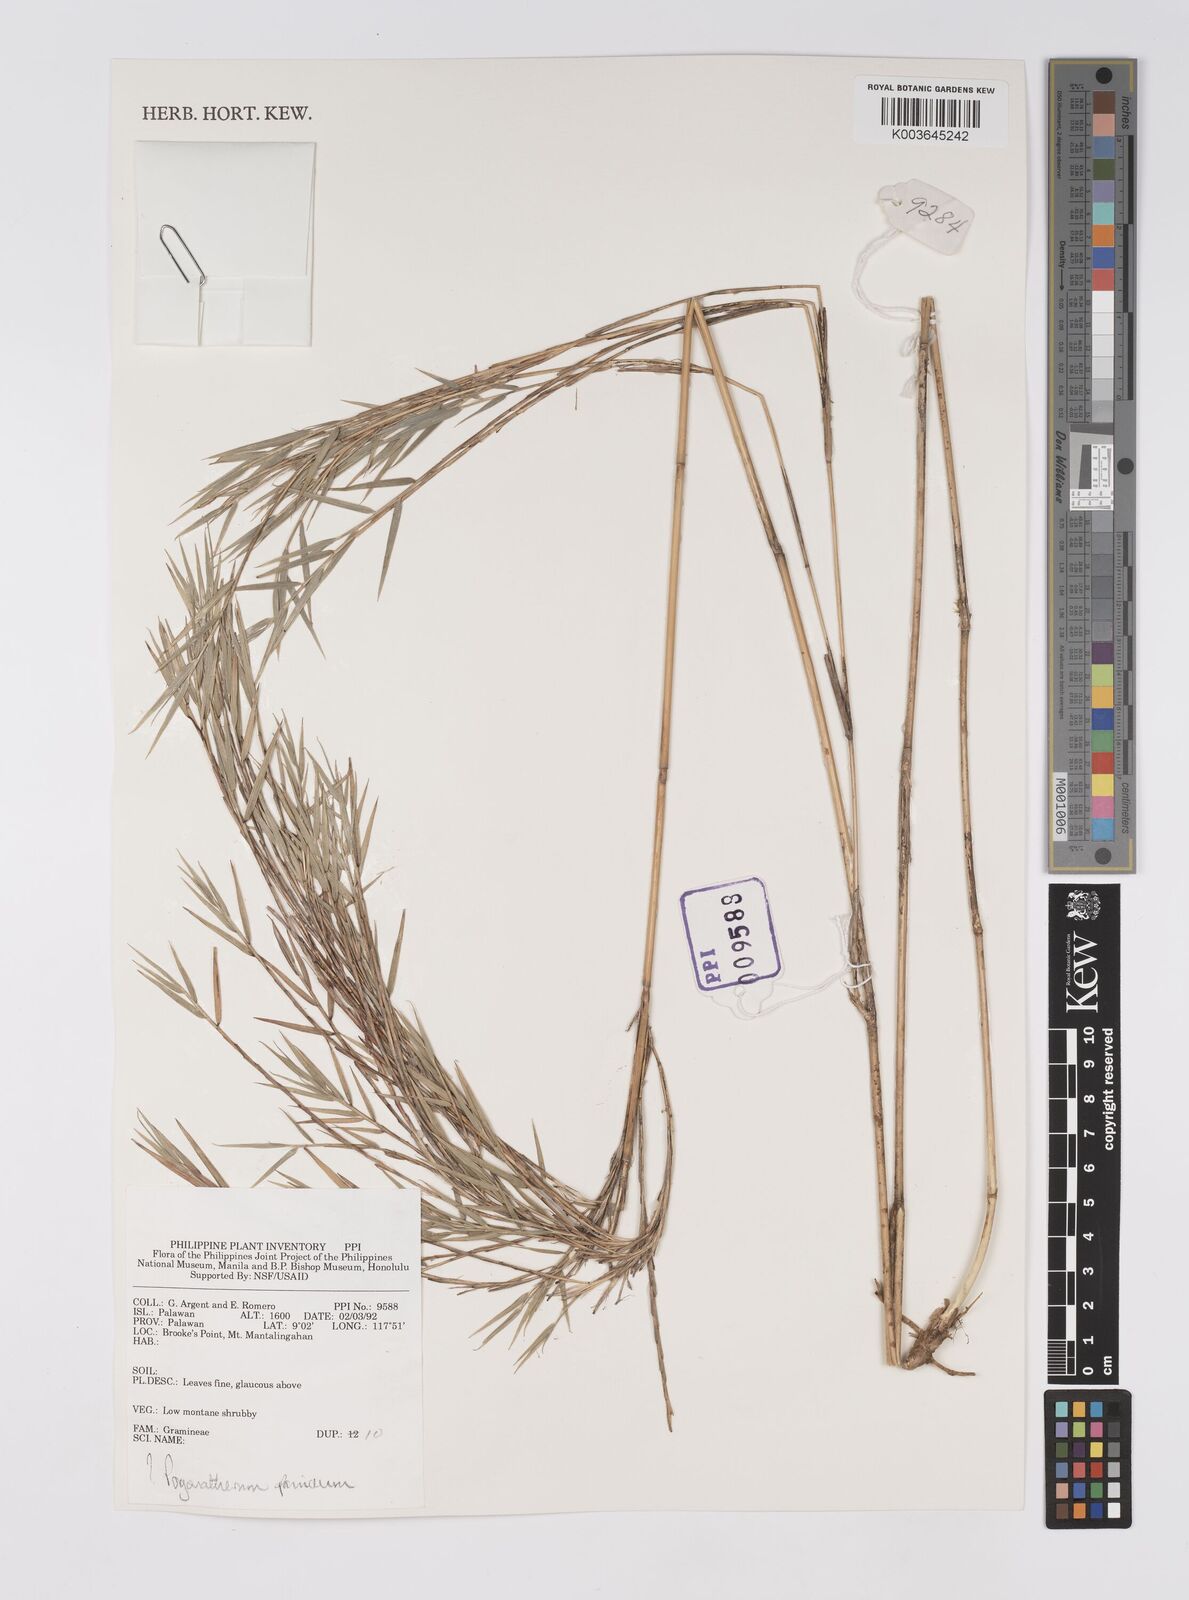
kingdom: Plantae
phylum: Tracheophyta
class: Liliopsida
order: Poales
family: Poaceae
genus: Pogonatherum
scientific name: Pogonatherum paniceum
